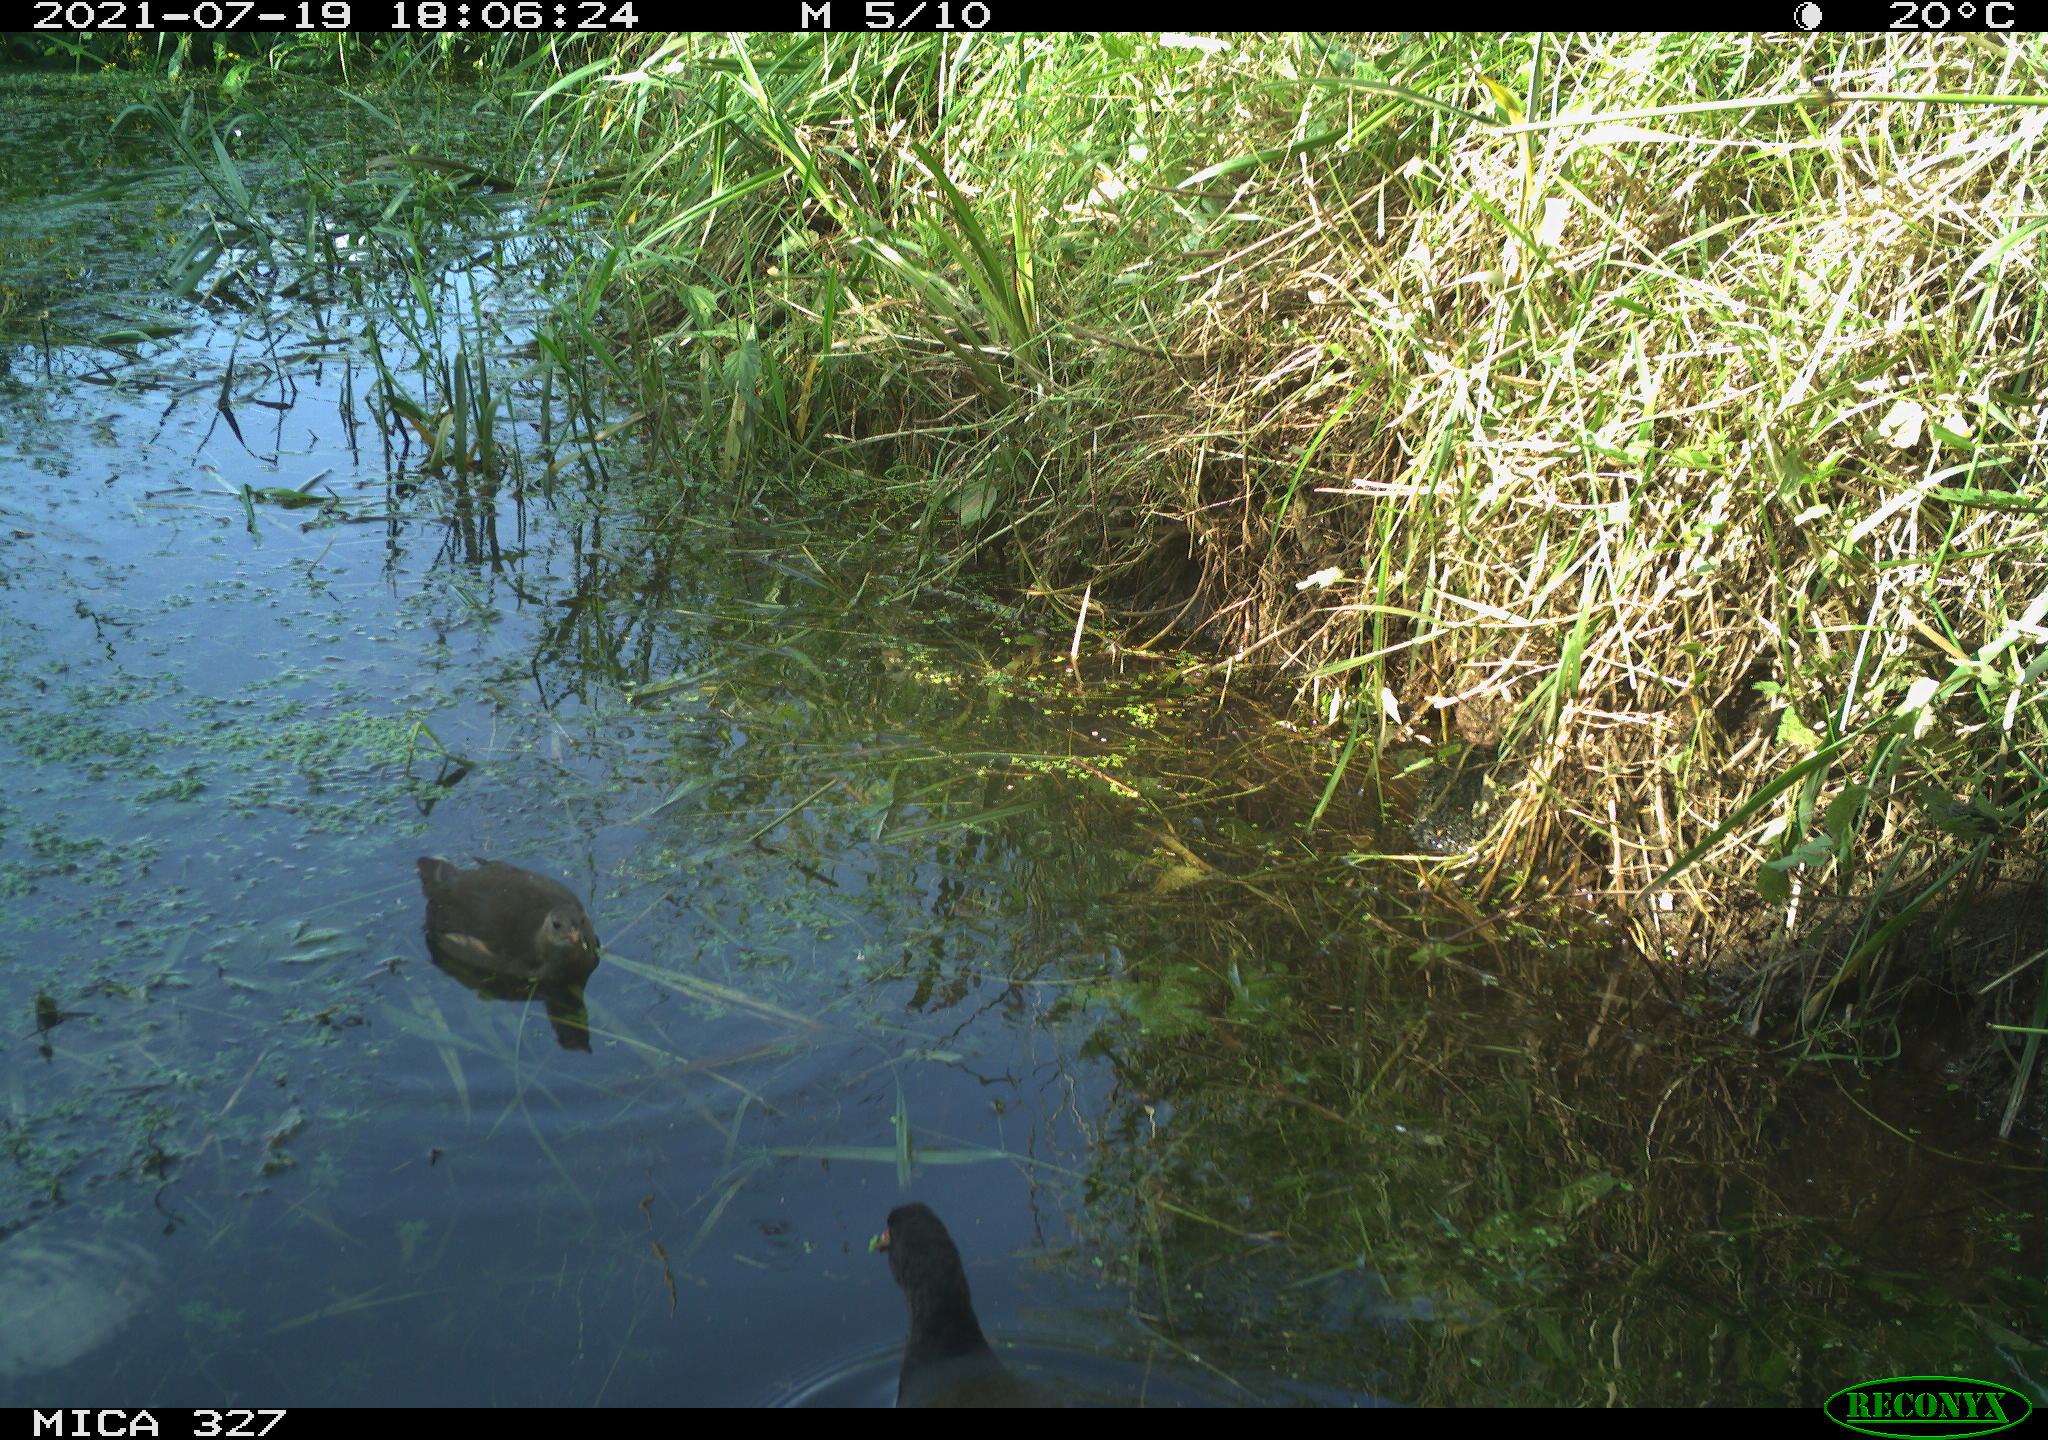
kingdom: Animalia
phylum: Chordata
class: Aves
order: Gruiformes
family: Rallidae
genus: Gallinula
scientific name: Gallinula chloropus
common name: Common moorhen
